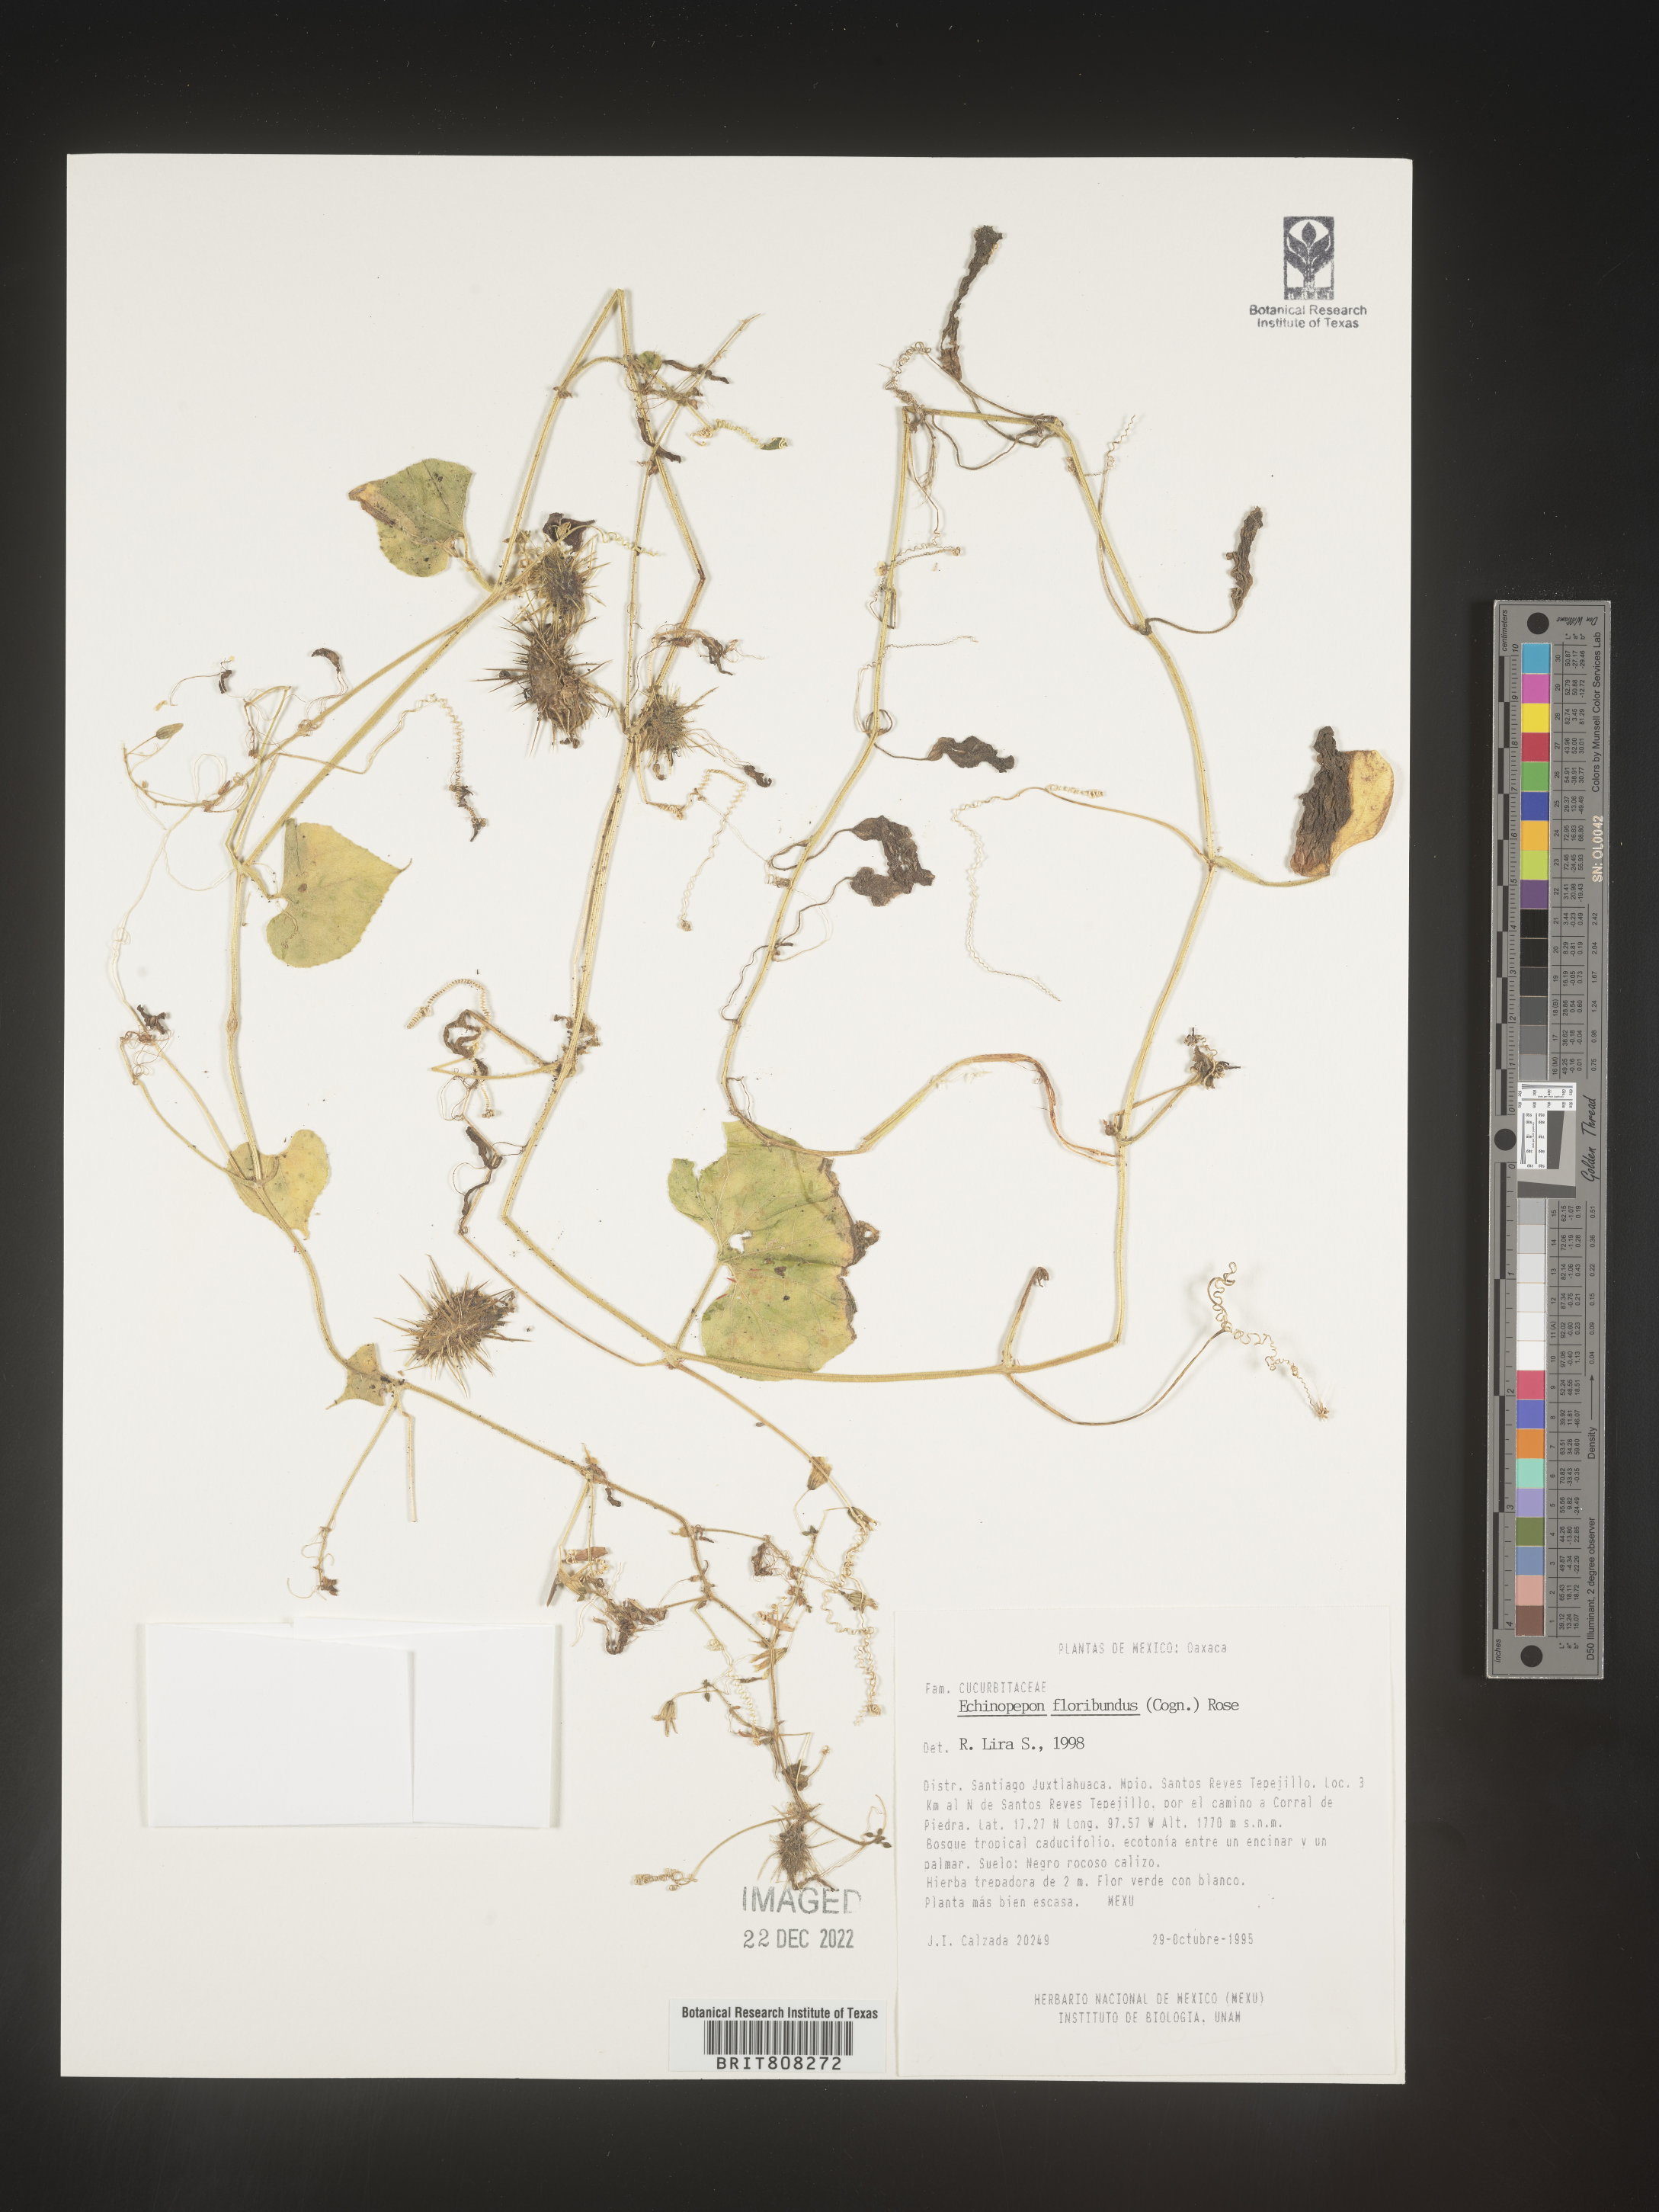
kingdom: Plantae
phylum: Tracheophyta
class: Magnoliopsida
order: Cucurbitales
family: Cucurbitaceae
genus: Echinopepon
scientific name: Echinopepon
